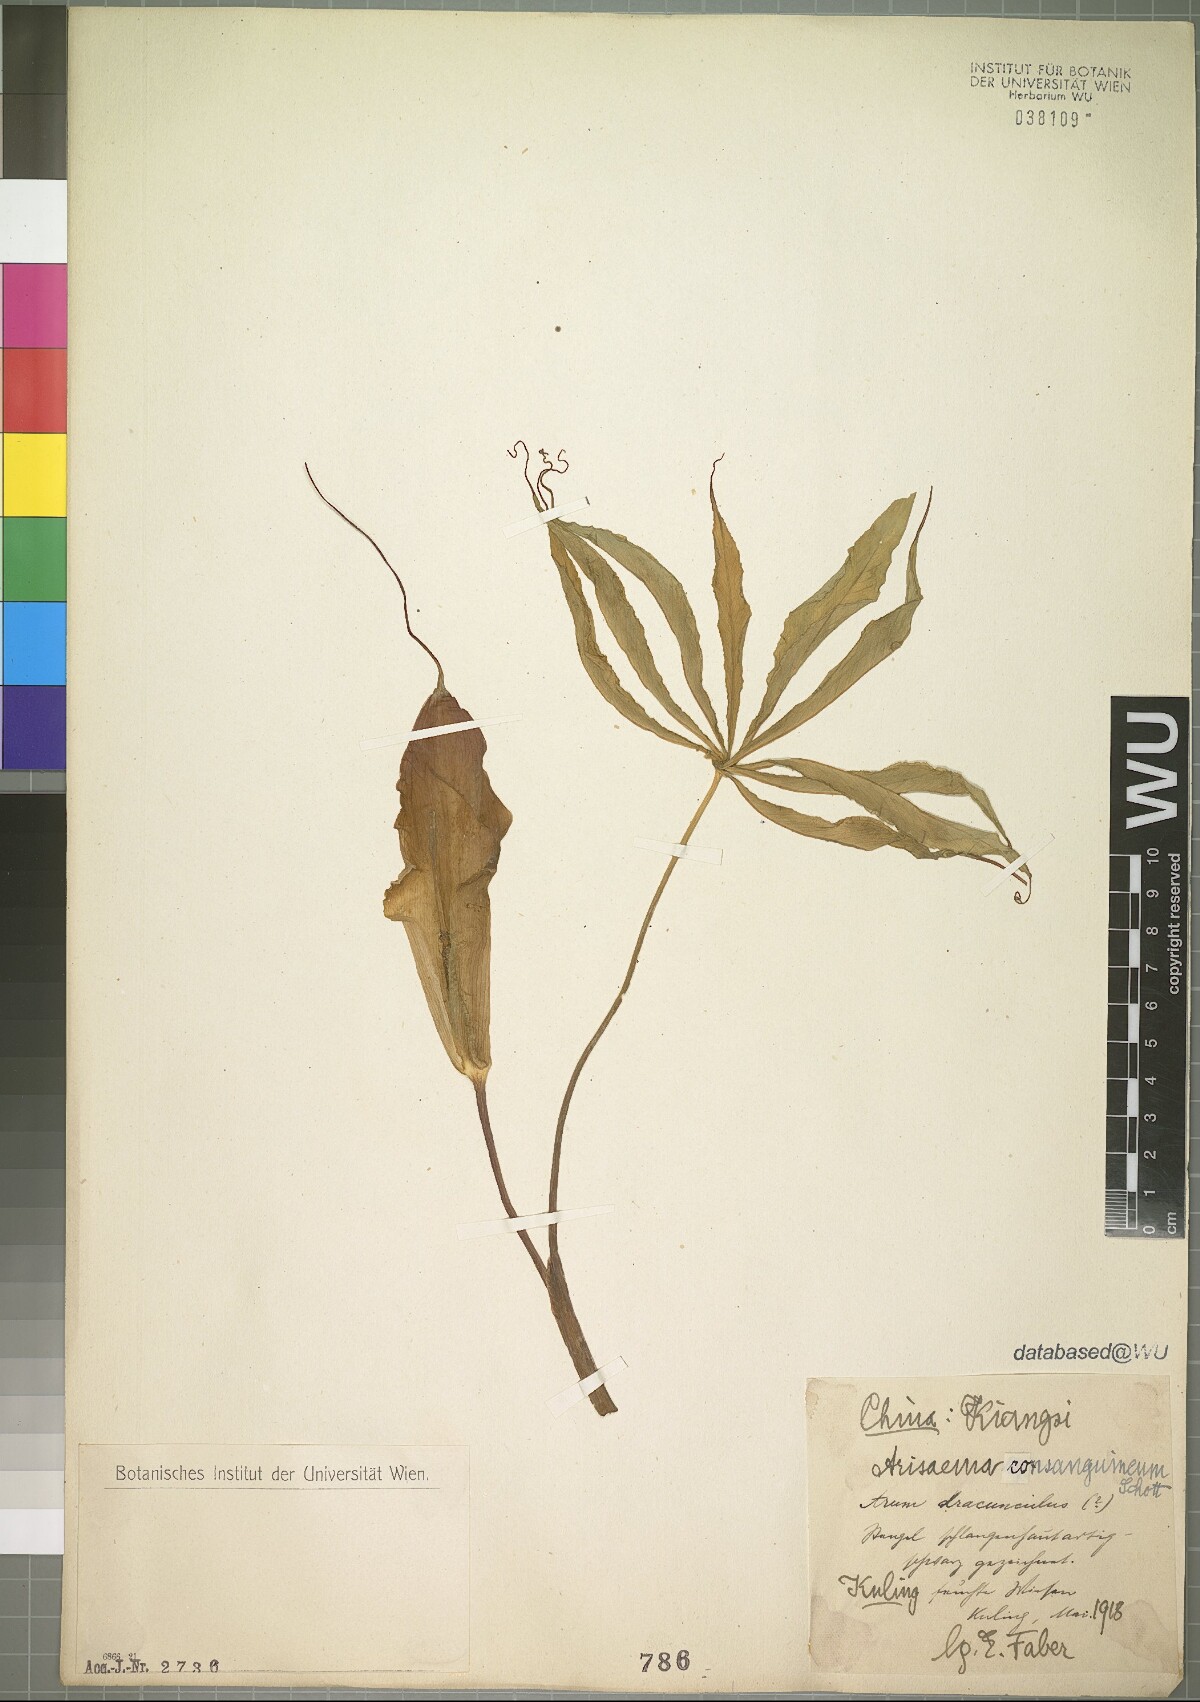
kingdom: Plantae
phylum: Tracheophyta
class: Liliopsida
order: Alismatales
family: Araceae
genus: Arisaema
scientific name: Arisaema consanguineum
